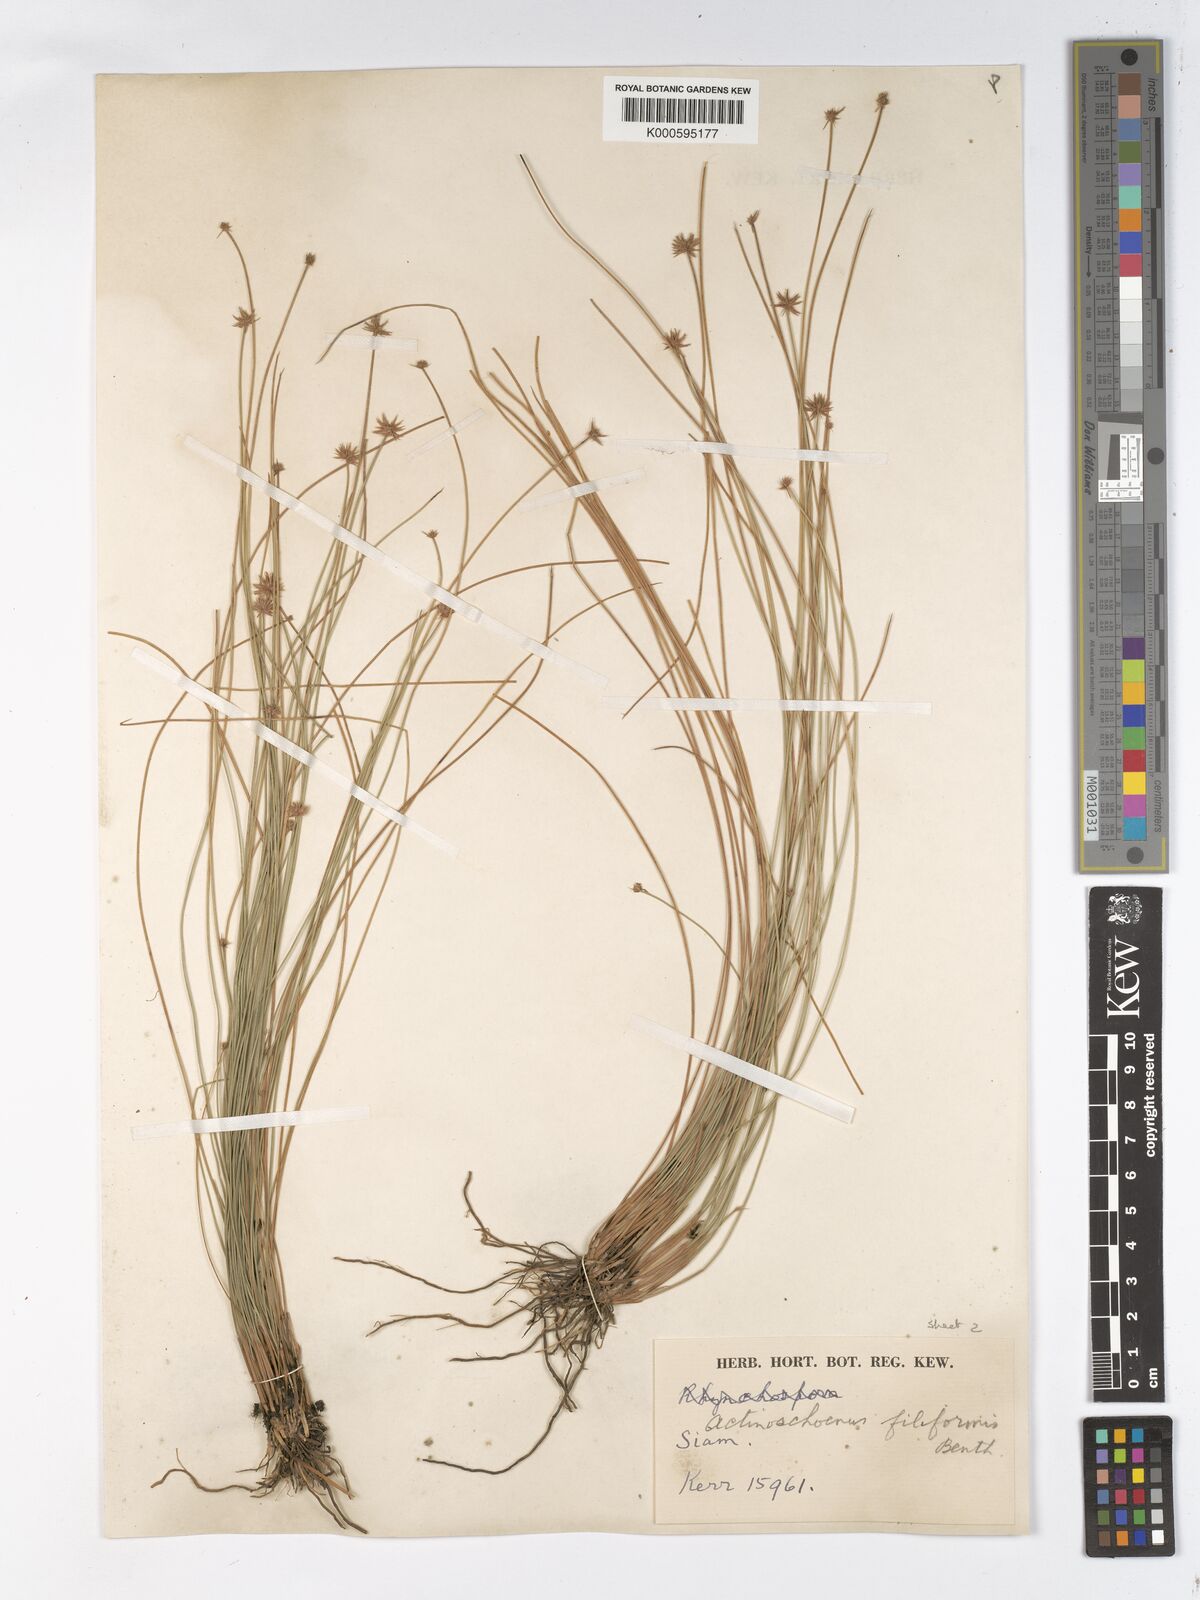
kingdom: Plantae
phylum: Tracheophyta
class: Liliopsida
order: Poales
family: Cyperaceae
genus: Actinoschoenus
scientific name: Actinoschoenus aphyllus
